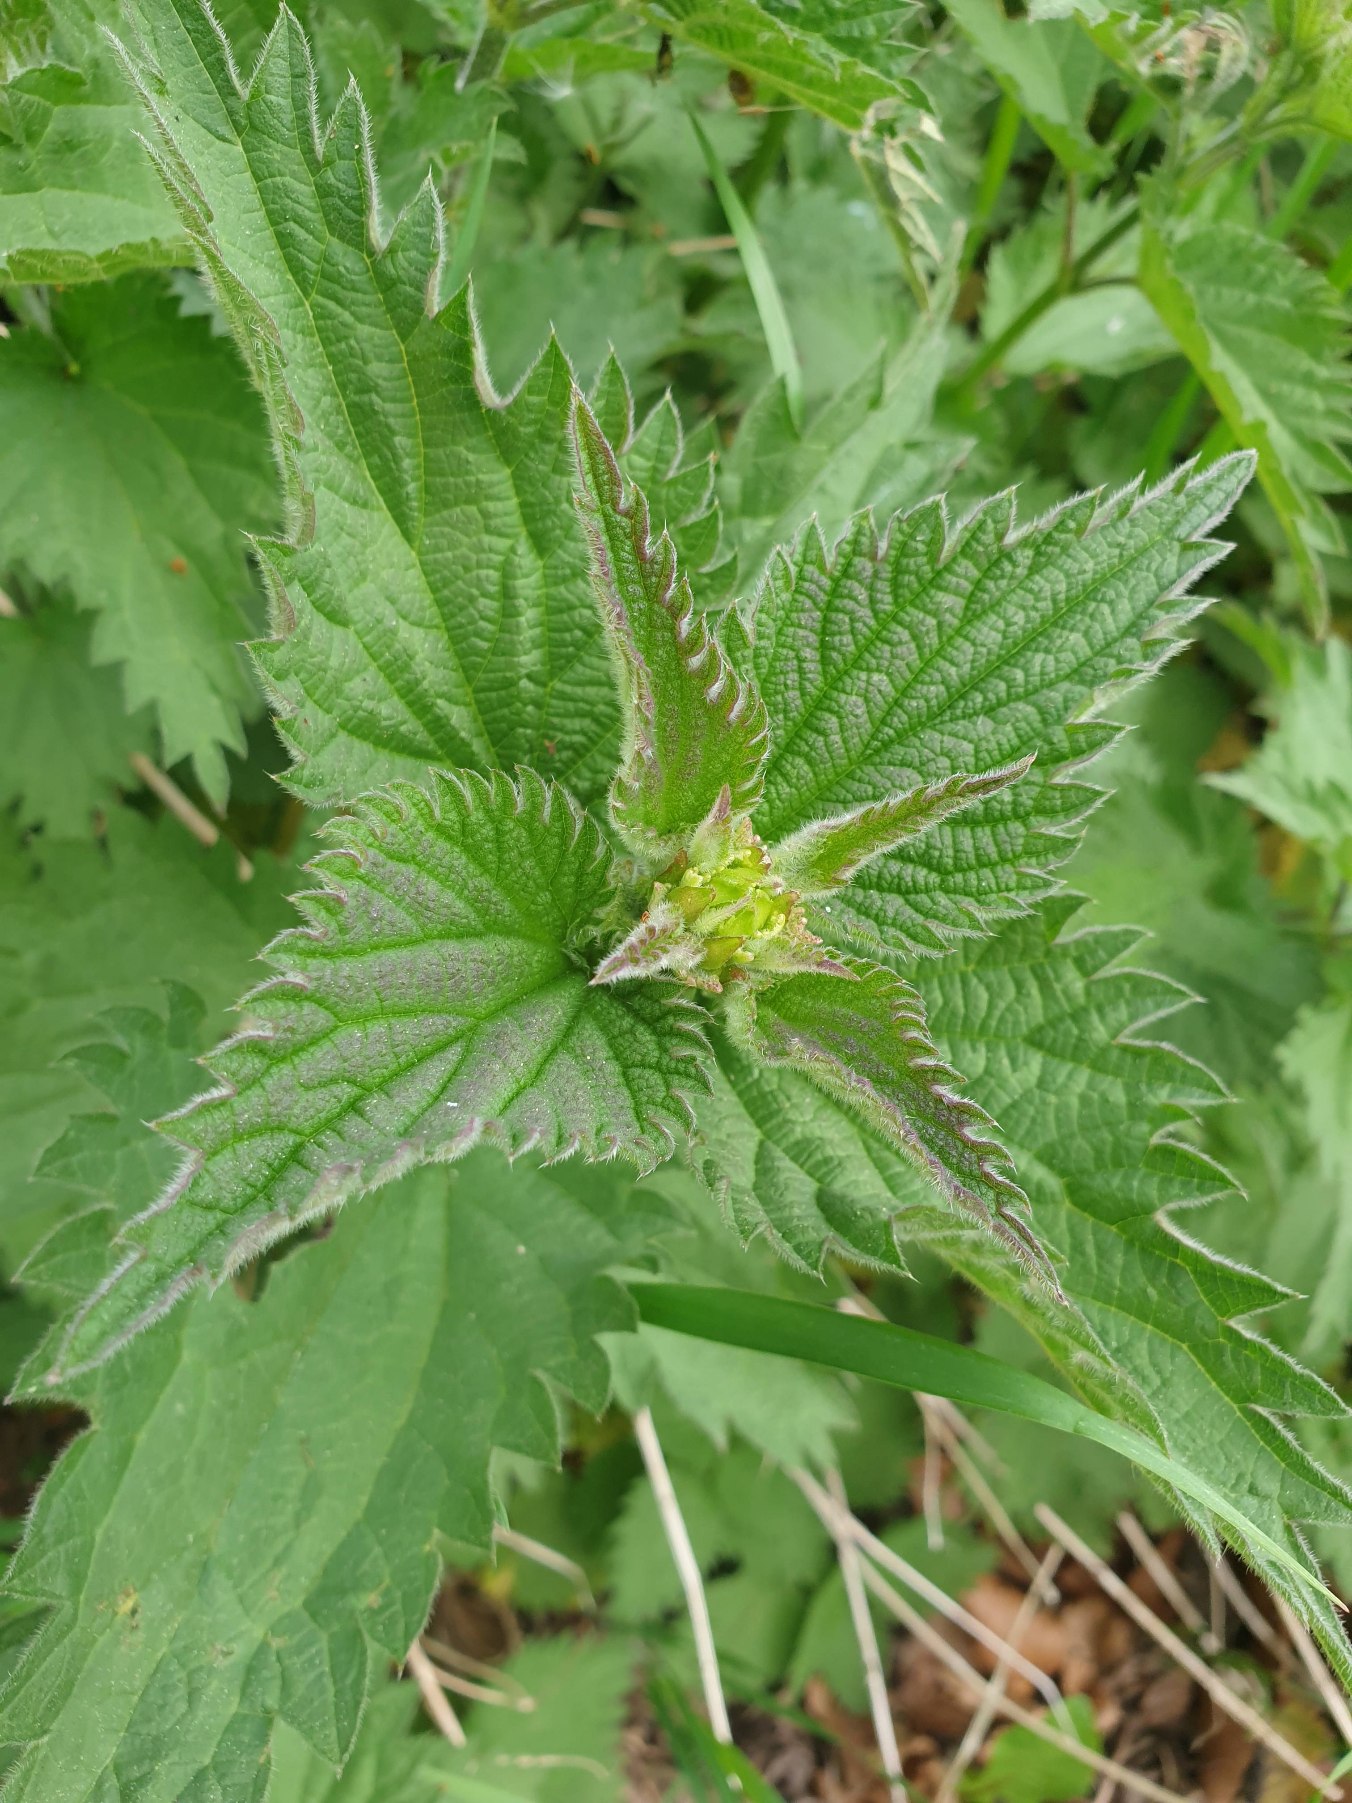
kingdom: Plantae
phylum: Tracheophyta
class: Magnoliopsida
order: Rosales
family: Urticaceae
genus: Urtica
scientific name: Urtica dioica
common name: Stor nælde
